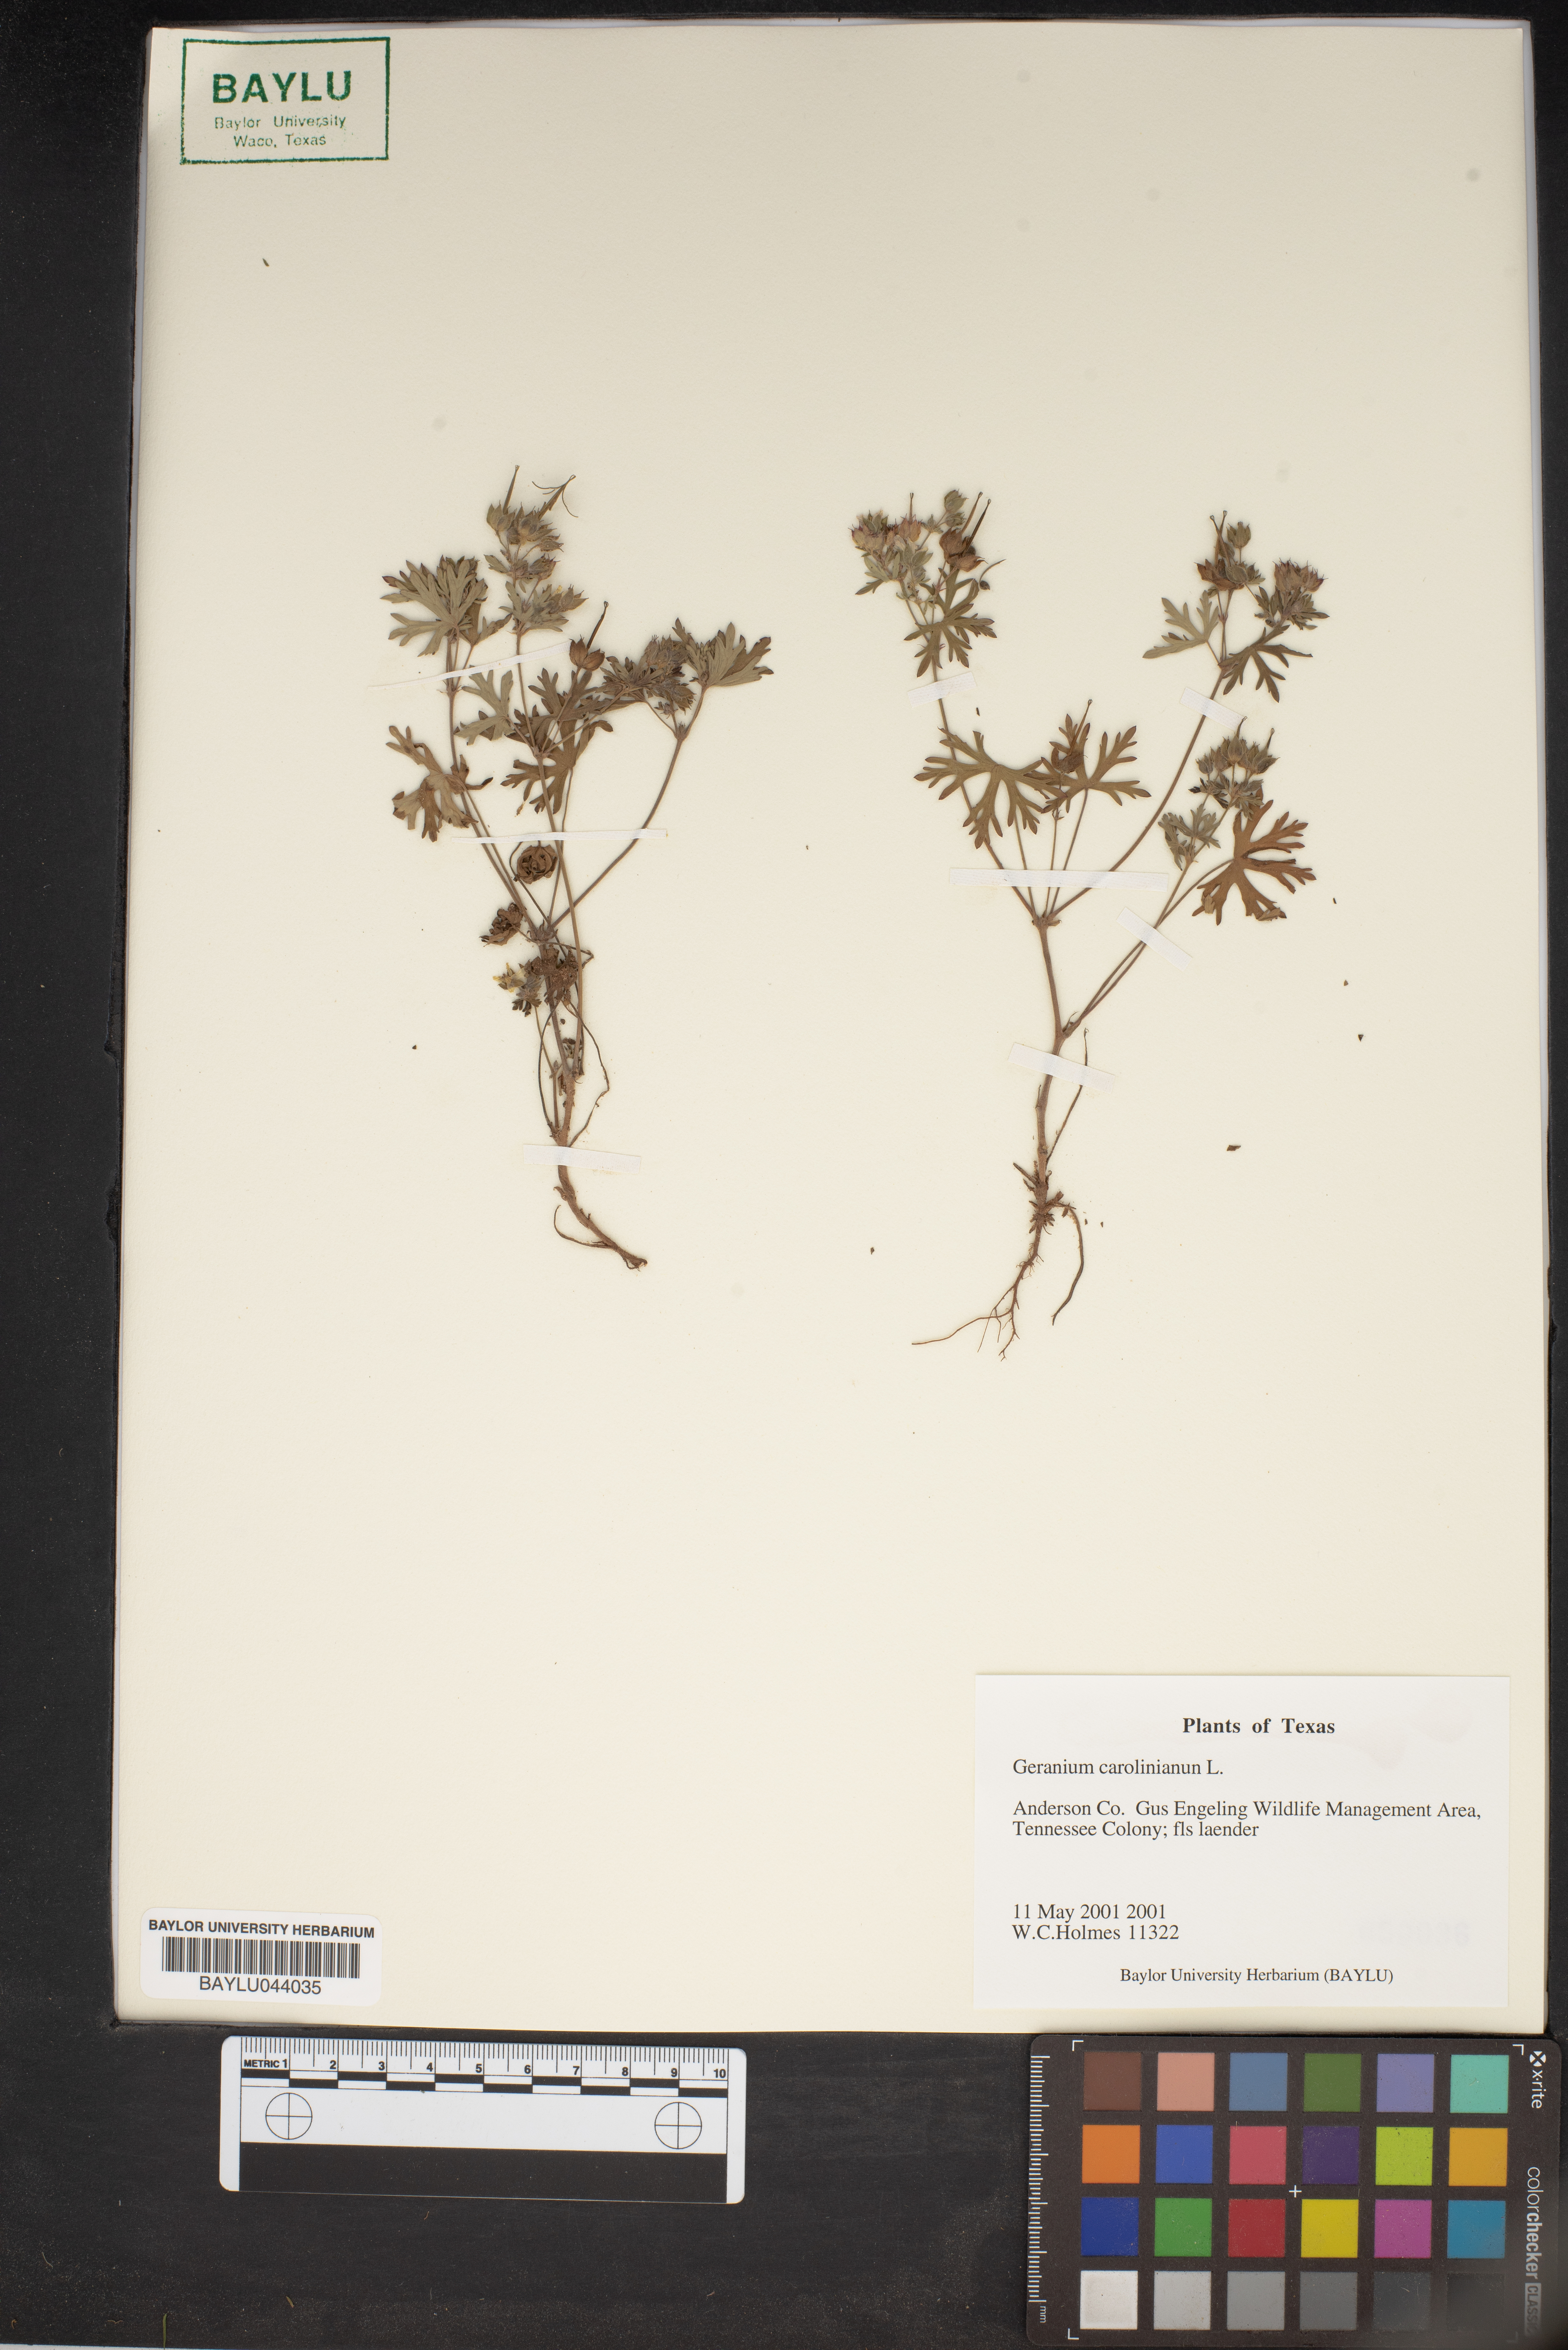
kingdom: Plantae
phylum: Tracheophyta
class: Magnoliopsida
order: Geraniales
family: Geraniaceae
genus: Geranium
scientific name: Geranium carolinianum
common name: Carolina crane's-bill
